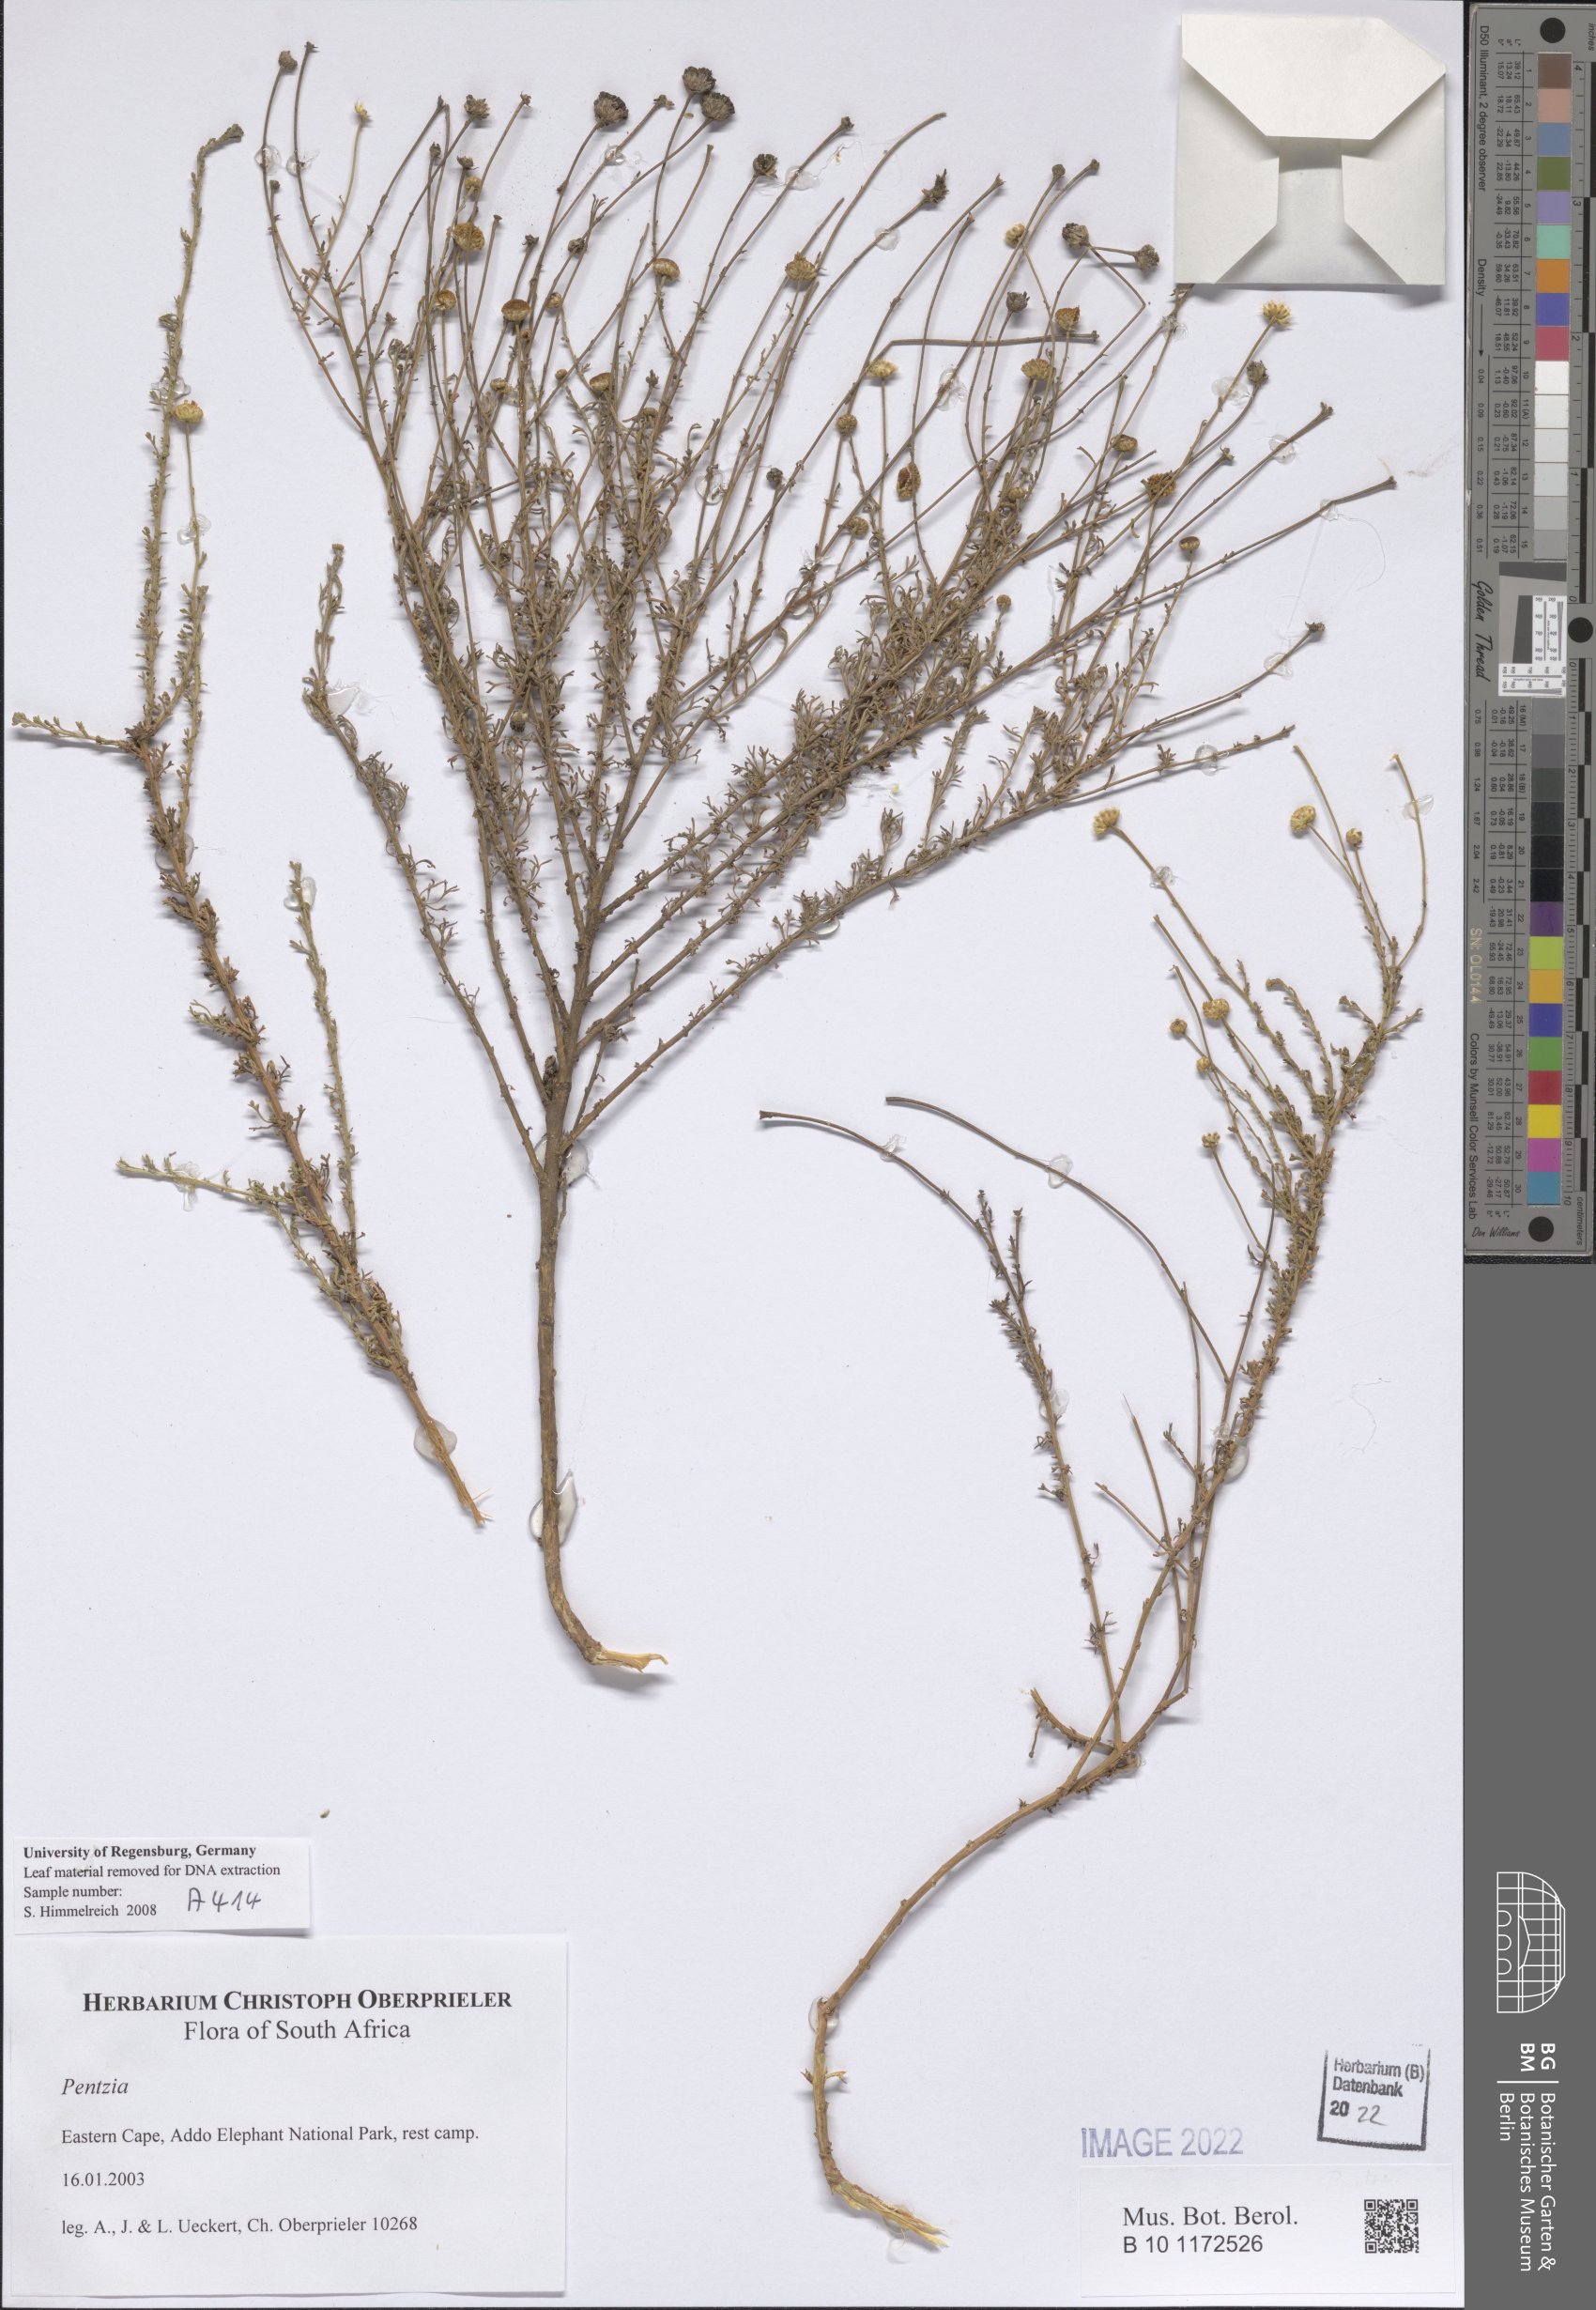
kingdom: Plantae
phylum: Tracheophyta
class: Magnoliopsida
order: Asterales
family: Asteraceae
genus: Pentzia
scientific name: Pentzia
